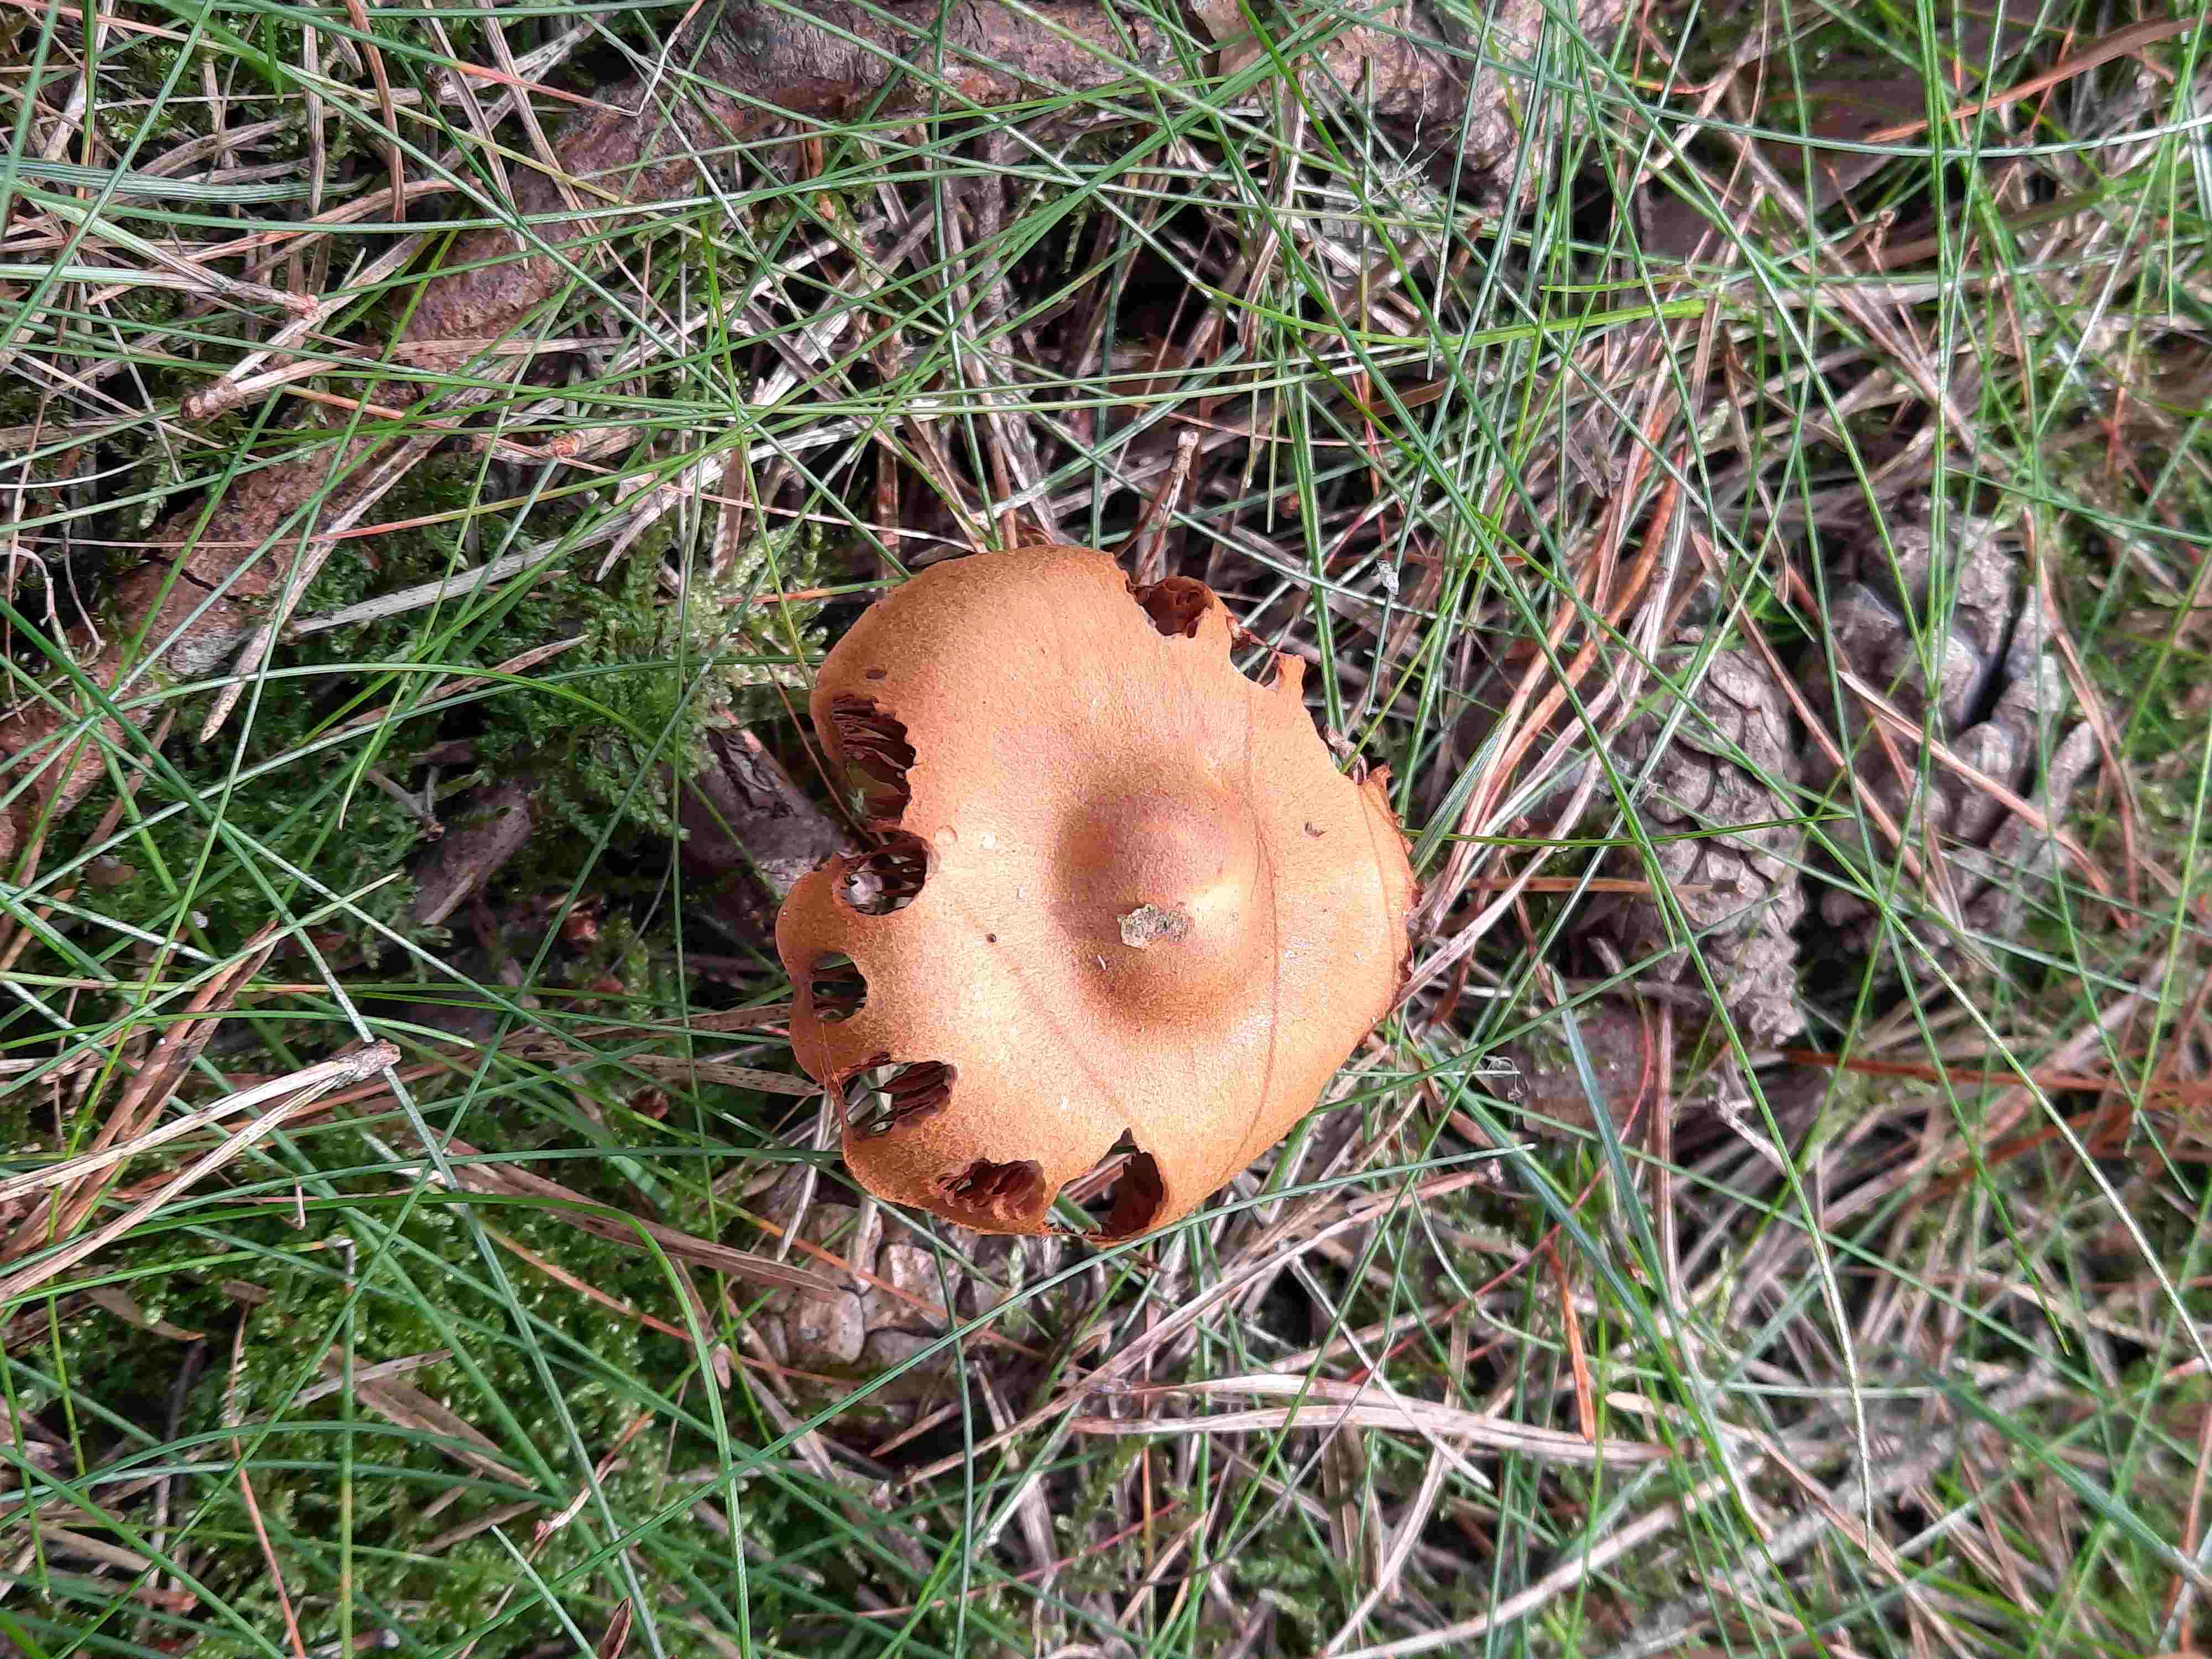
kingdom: Fungi
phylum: Basidiomycota
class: Agaricomycetes
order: Agaricales
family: Cortinariaceae
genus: Cortinarius
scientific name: Cortinarius
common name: cinnoberbladet slørhat
